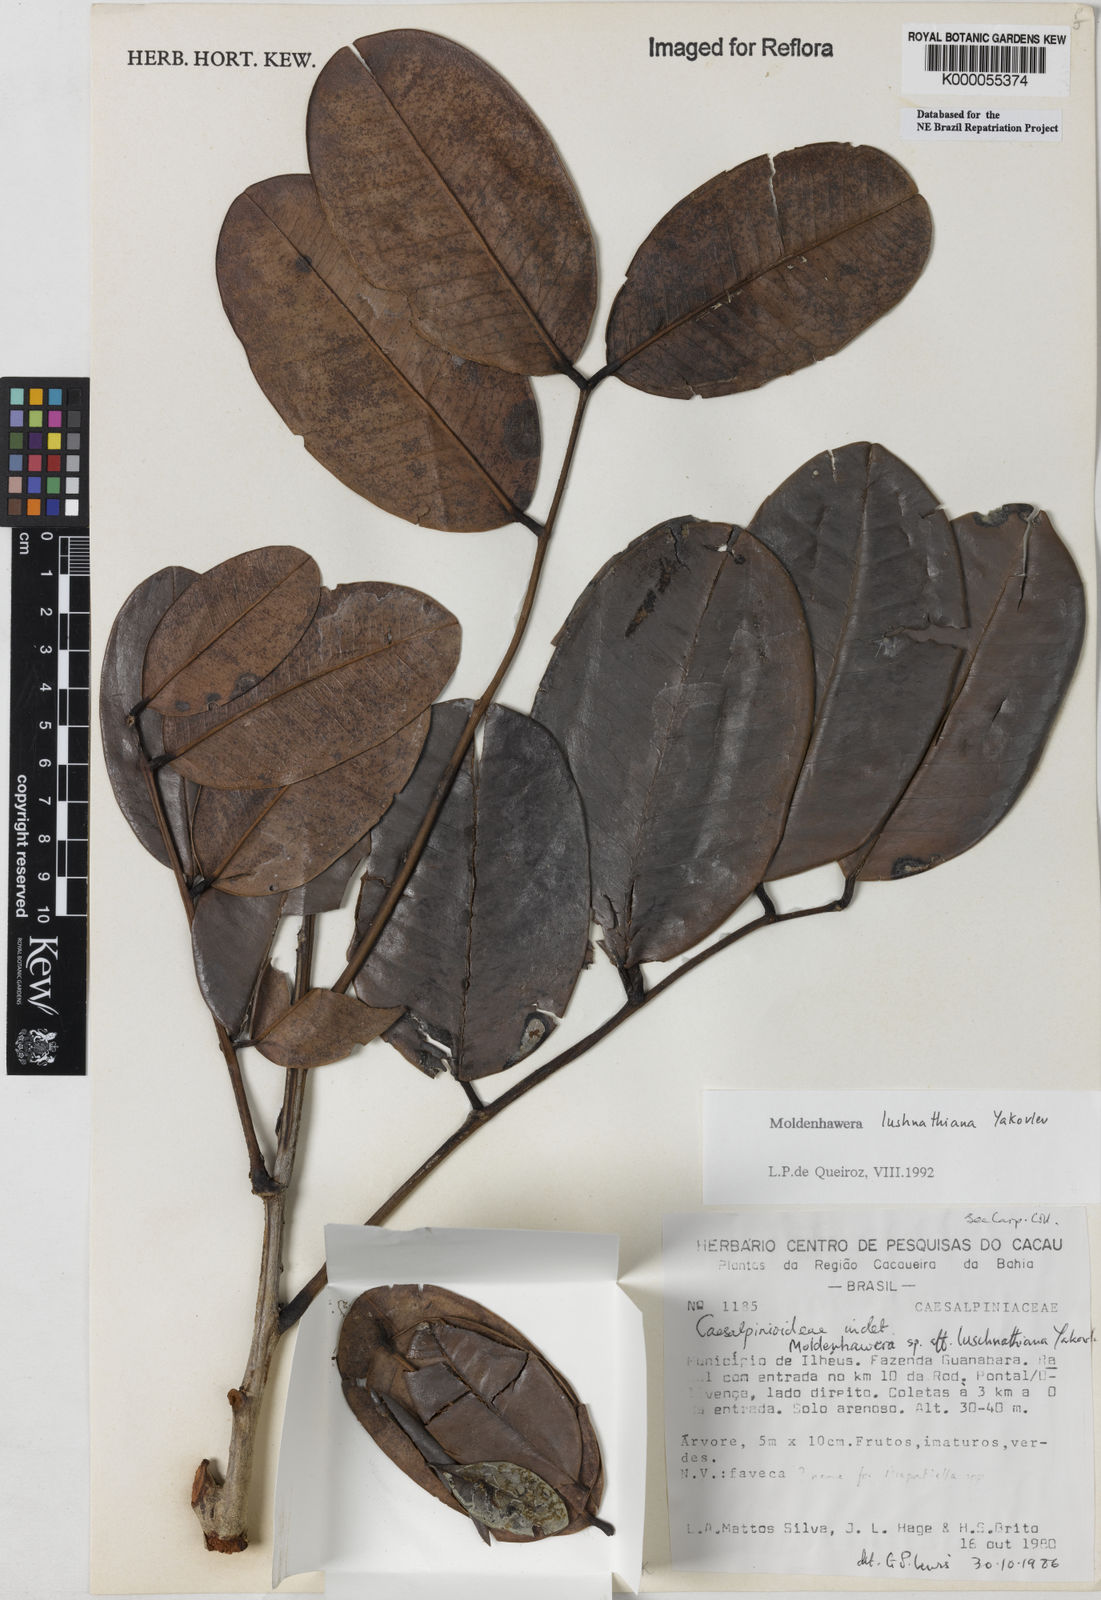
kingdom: Plantae
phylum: Tracheophyta
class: Magnoliopsida
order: Fabales
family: Fabaceae
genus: Moldenhawera
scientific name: Moldenhawera lushnathiana
